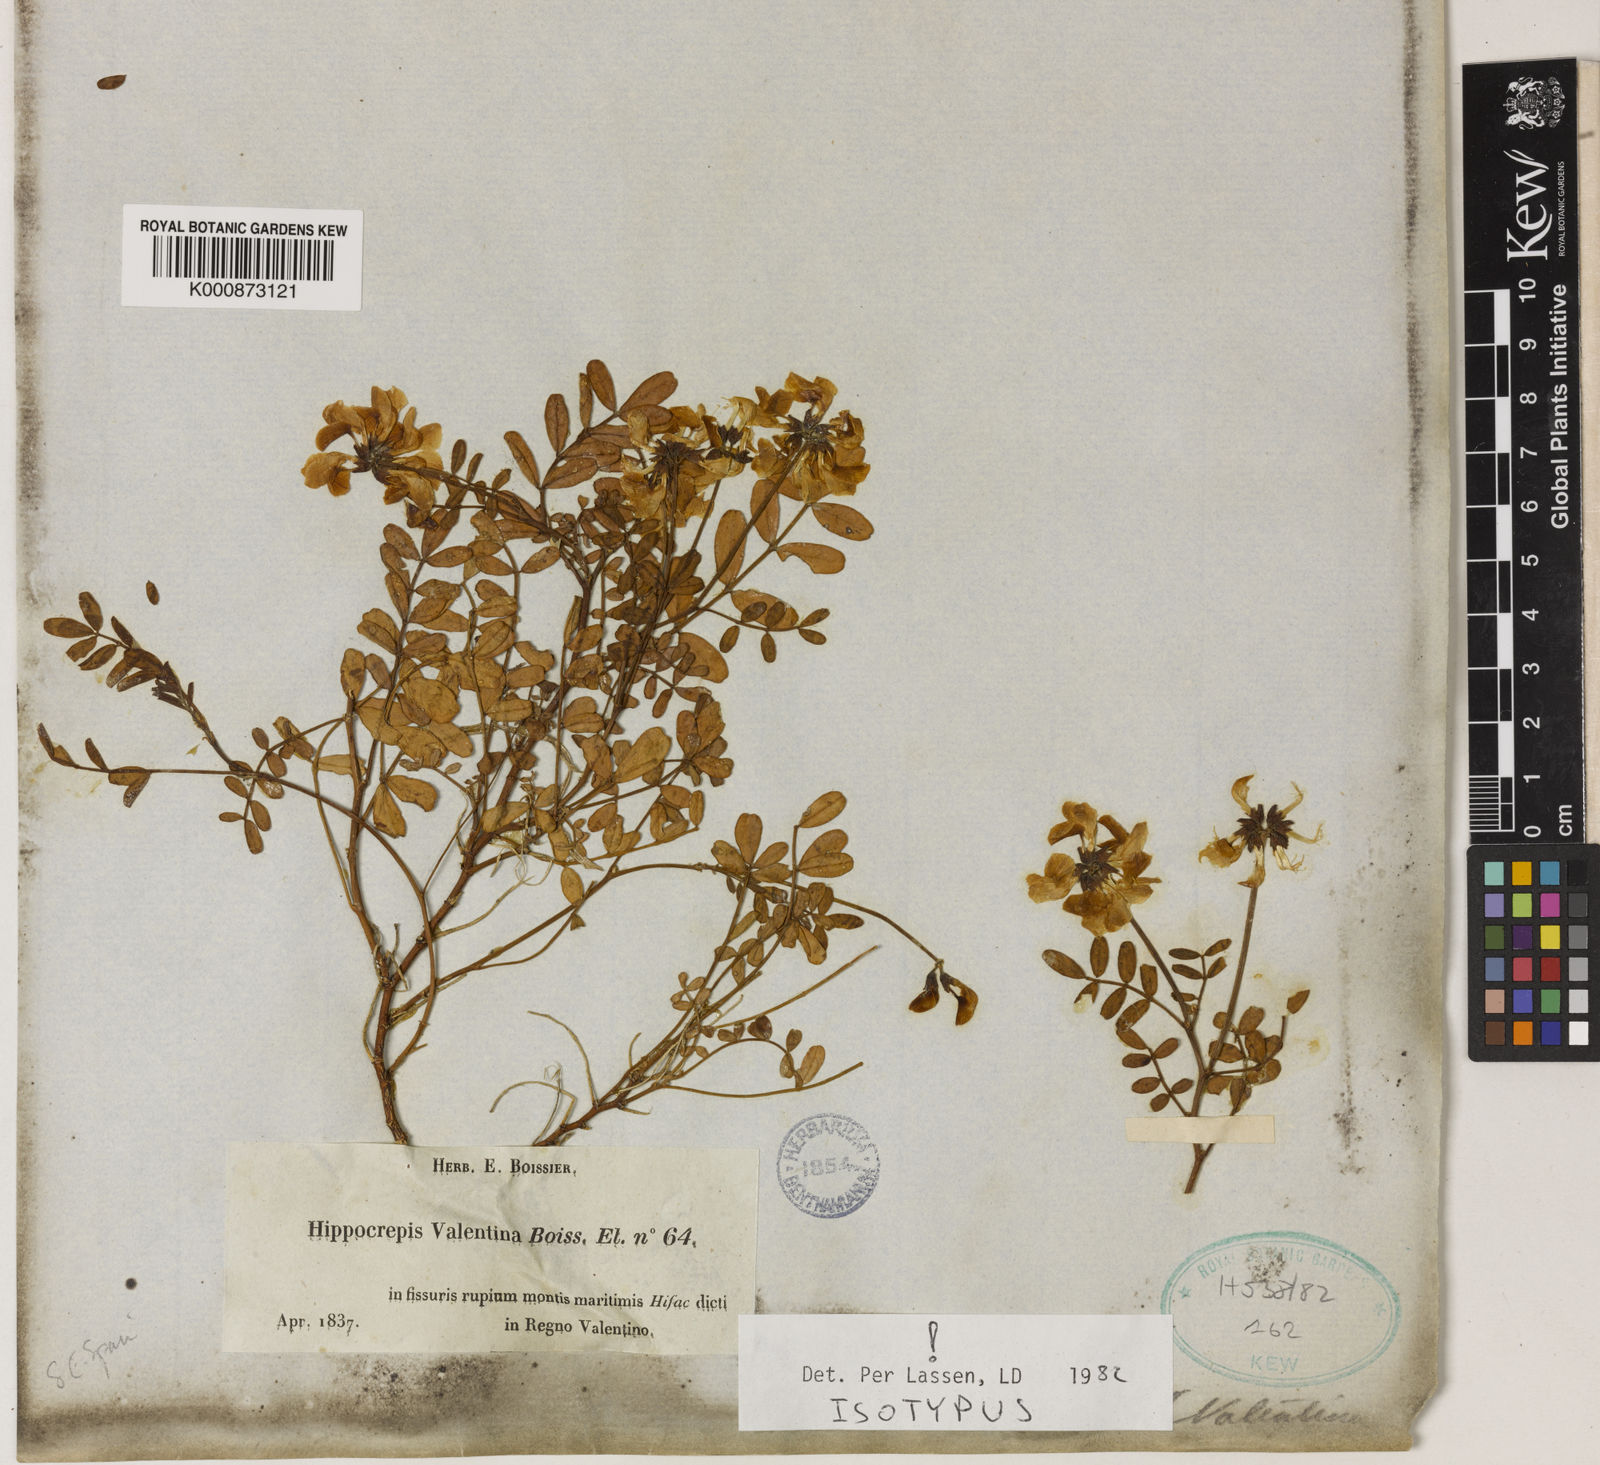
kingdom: Plantae
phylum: Tracheophyta
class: Magnoliopsida
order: Fabales
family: Fabaceae
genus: Hippocrepis
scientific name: Hippocrepis valentina
